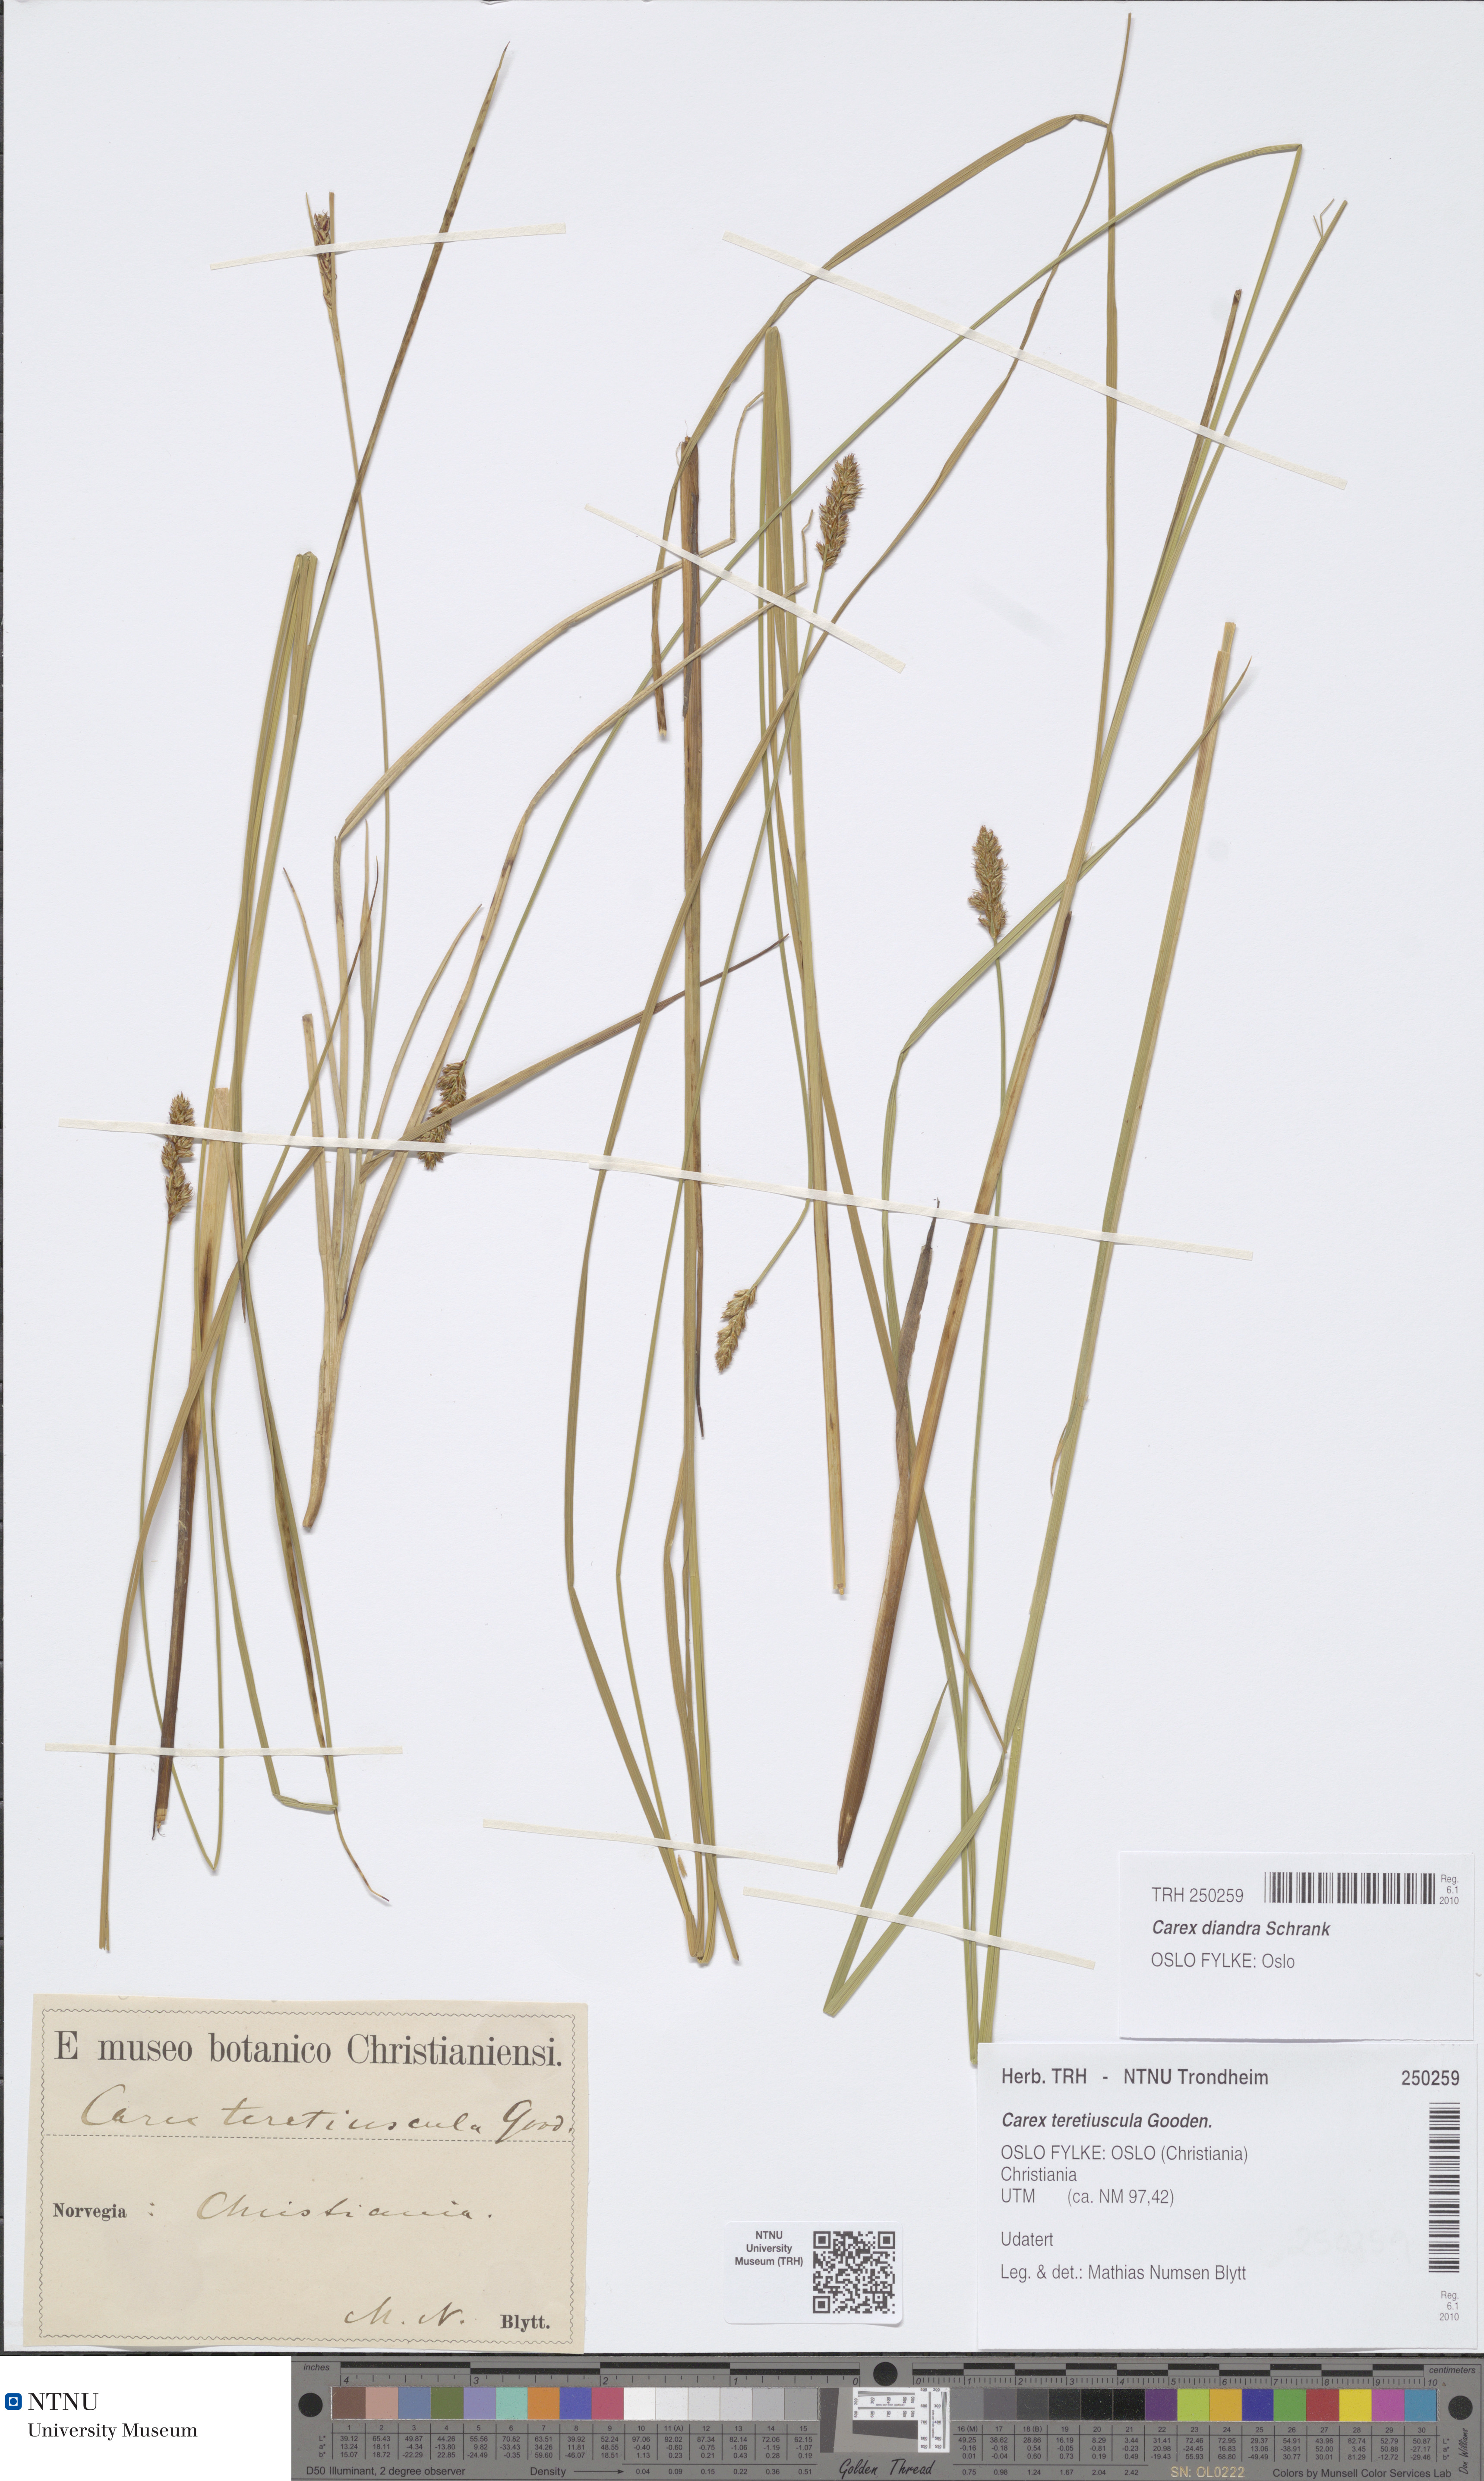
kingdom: Plantae
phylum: Tracheophyta
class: Liliopsida
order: Poales
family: Cyperaceae
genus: Carex
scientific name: Carex diandra
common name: Lesser tussock-sedge
